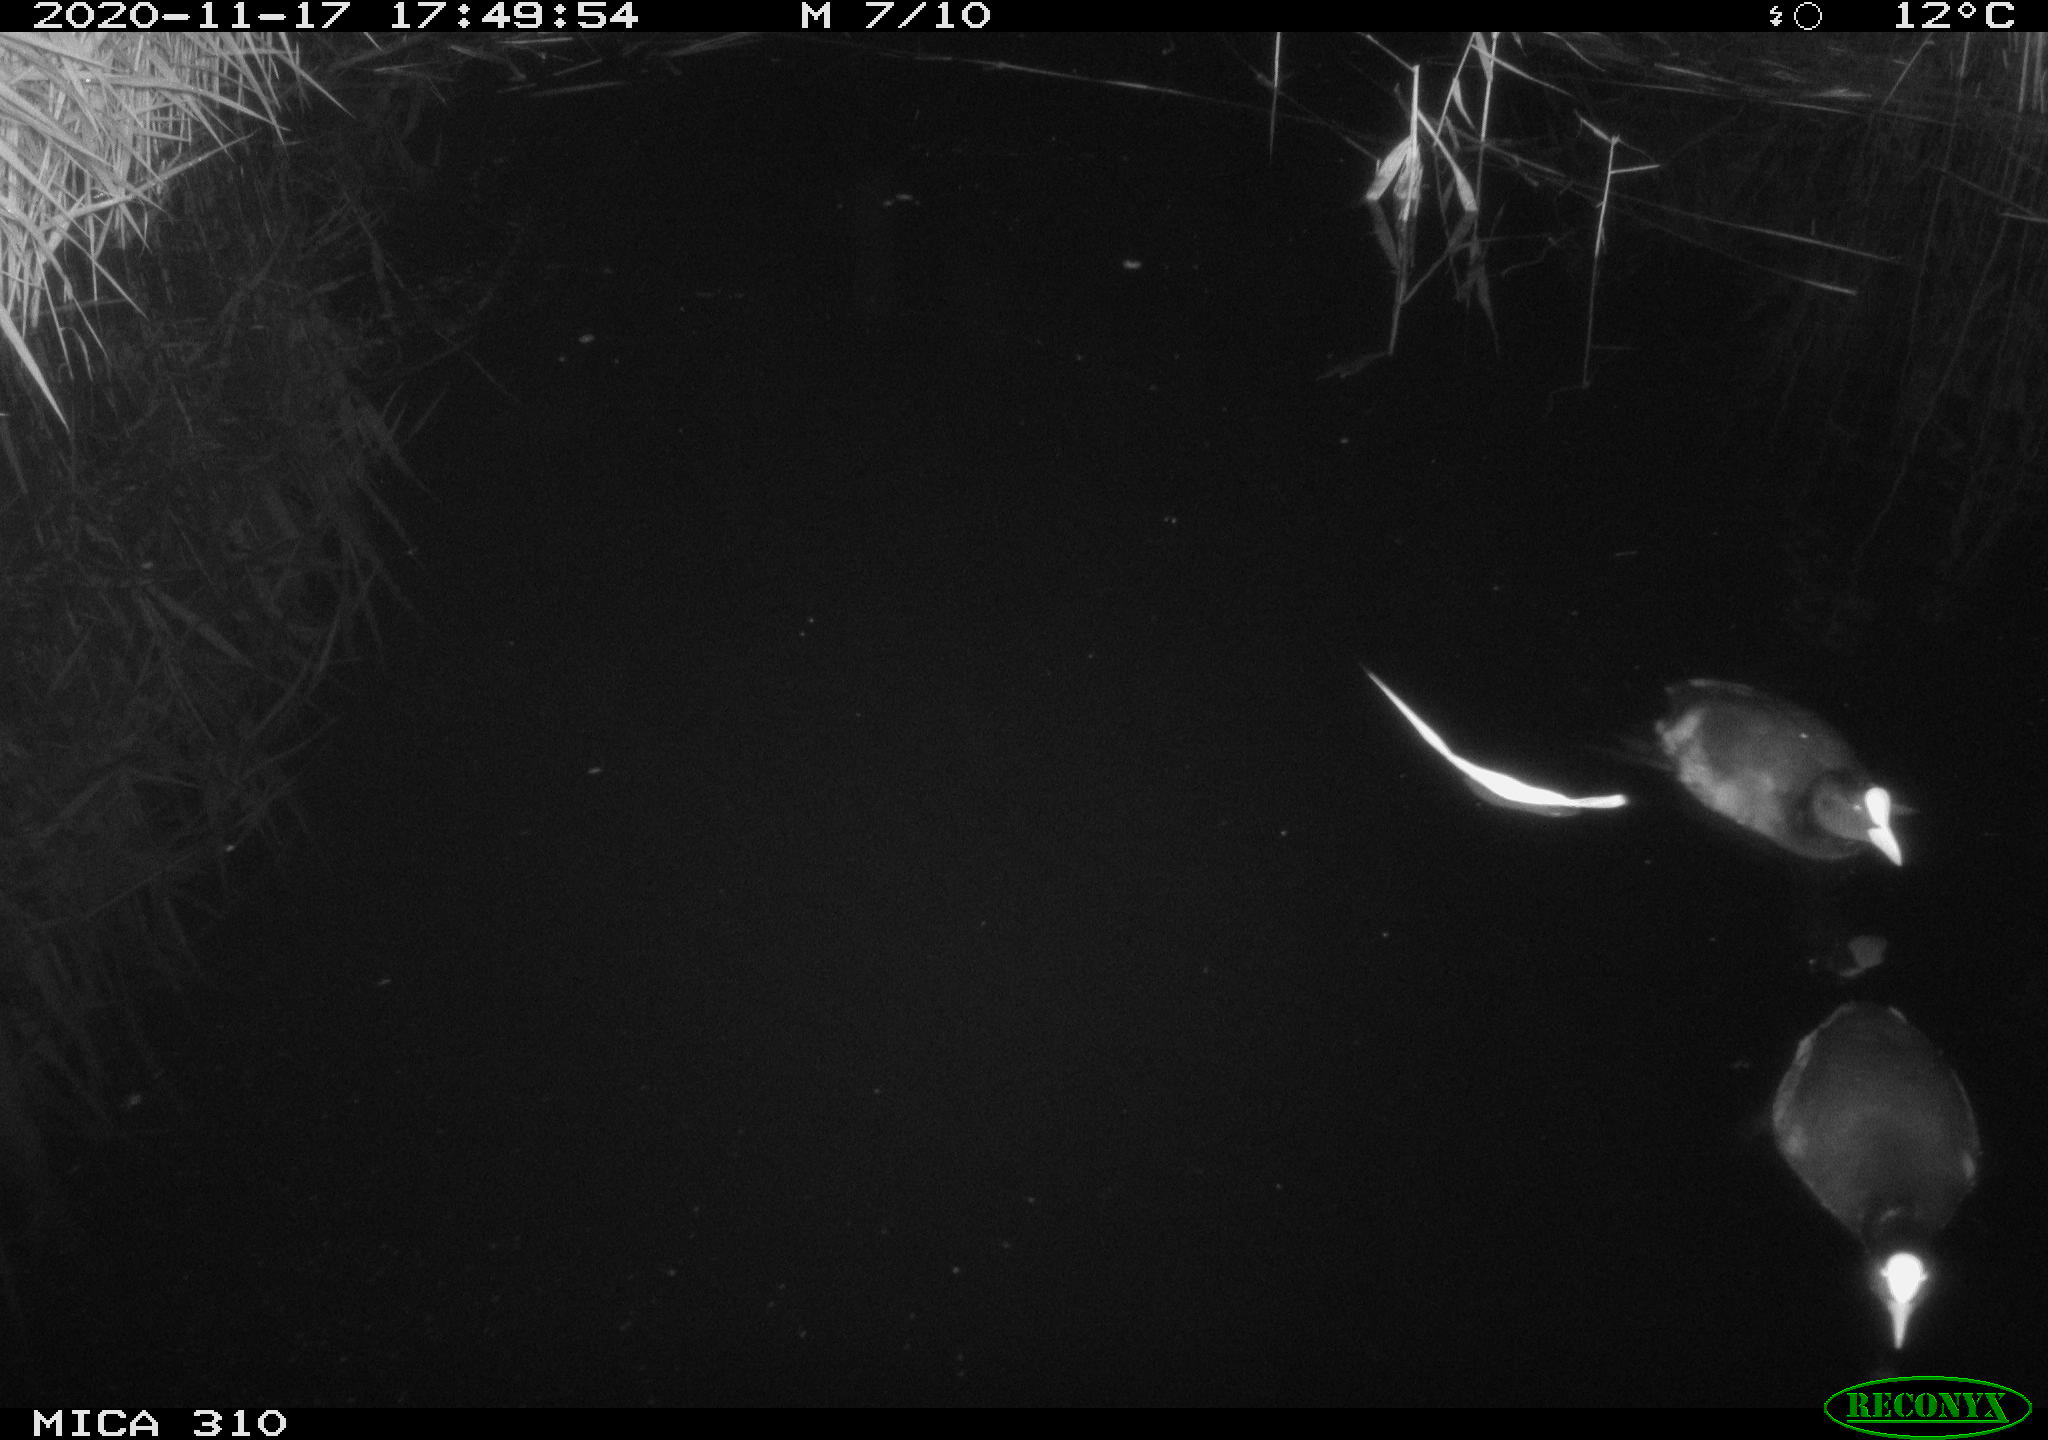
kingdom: Animalia
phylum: Chordata
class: Aves
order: Gruiformes
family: Rallidae
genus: Fulica
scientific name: Fulica atra
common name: Eurasian coot
